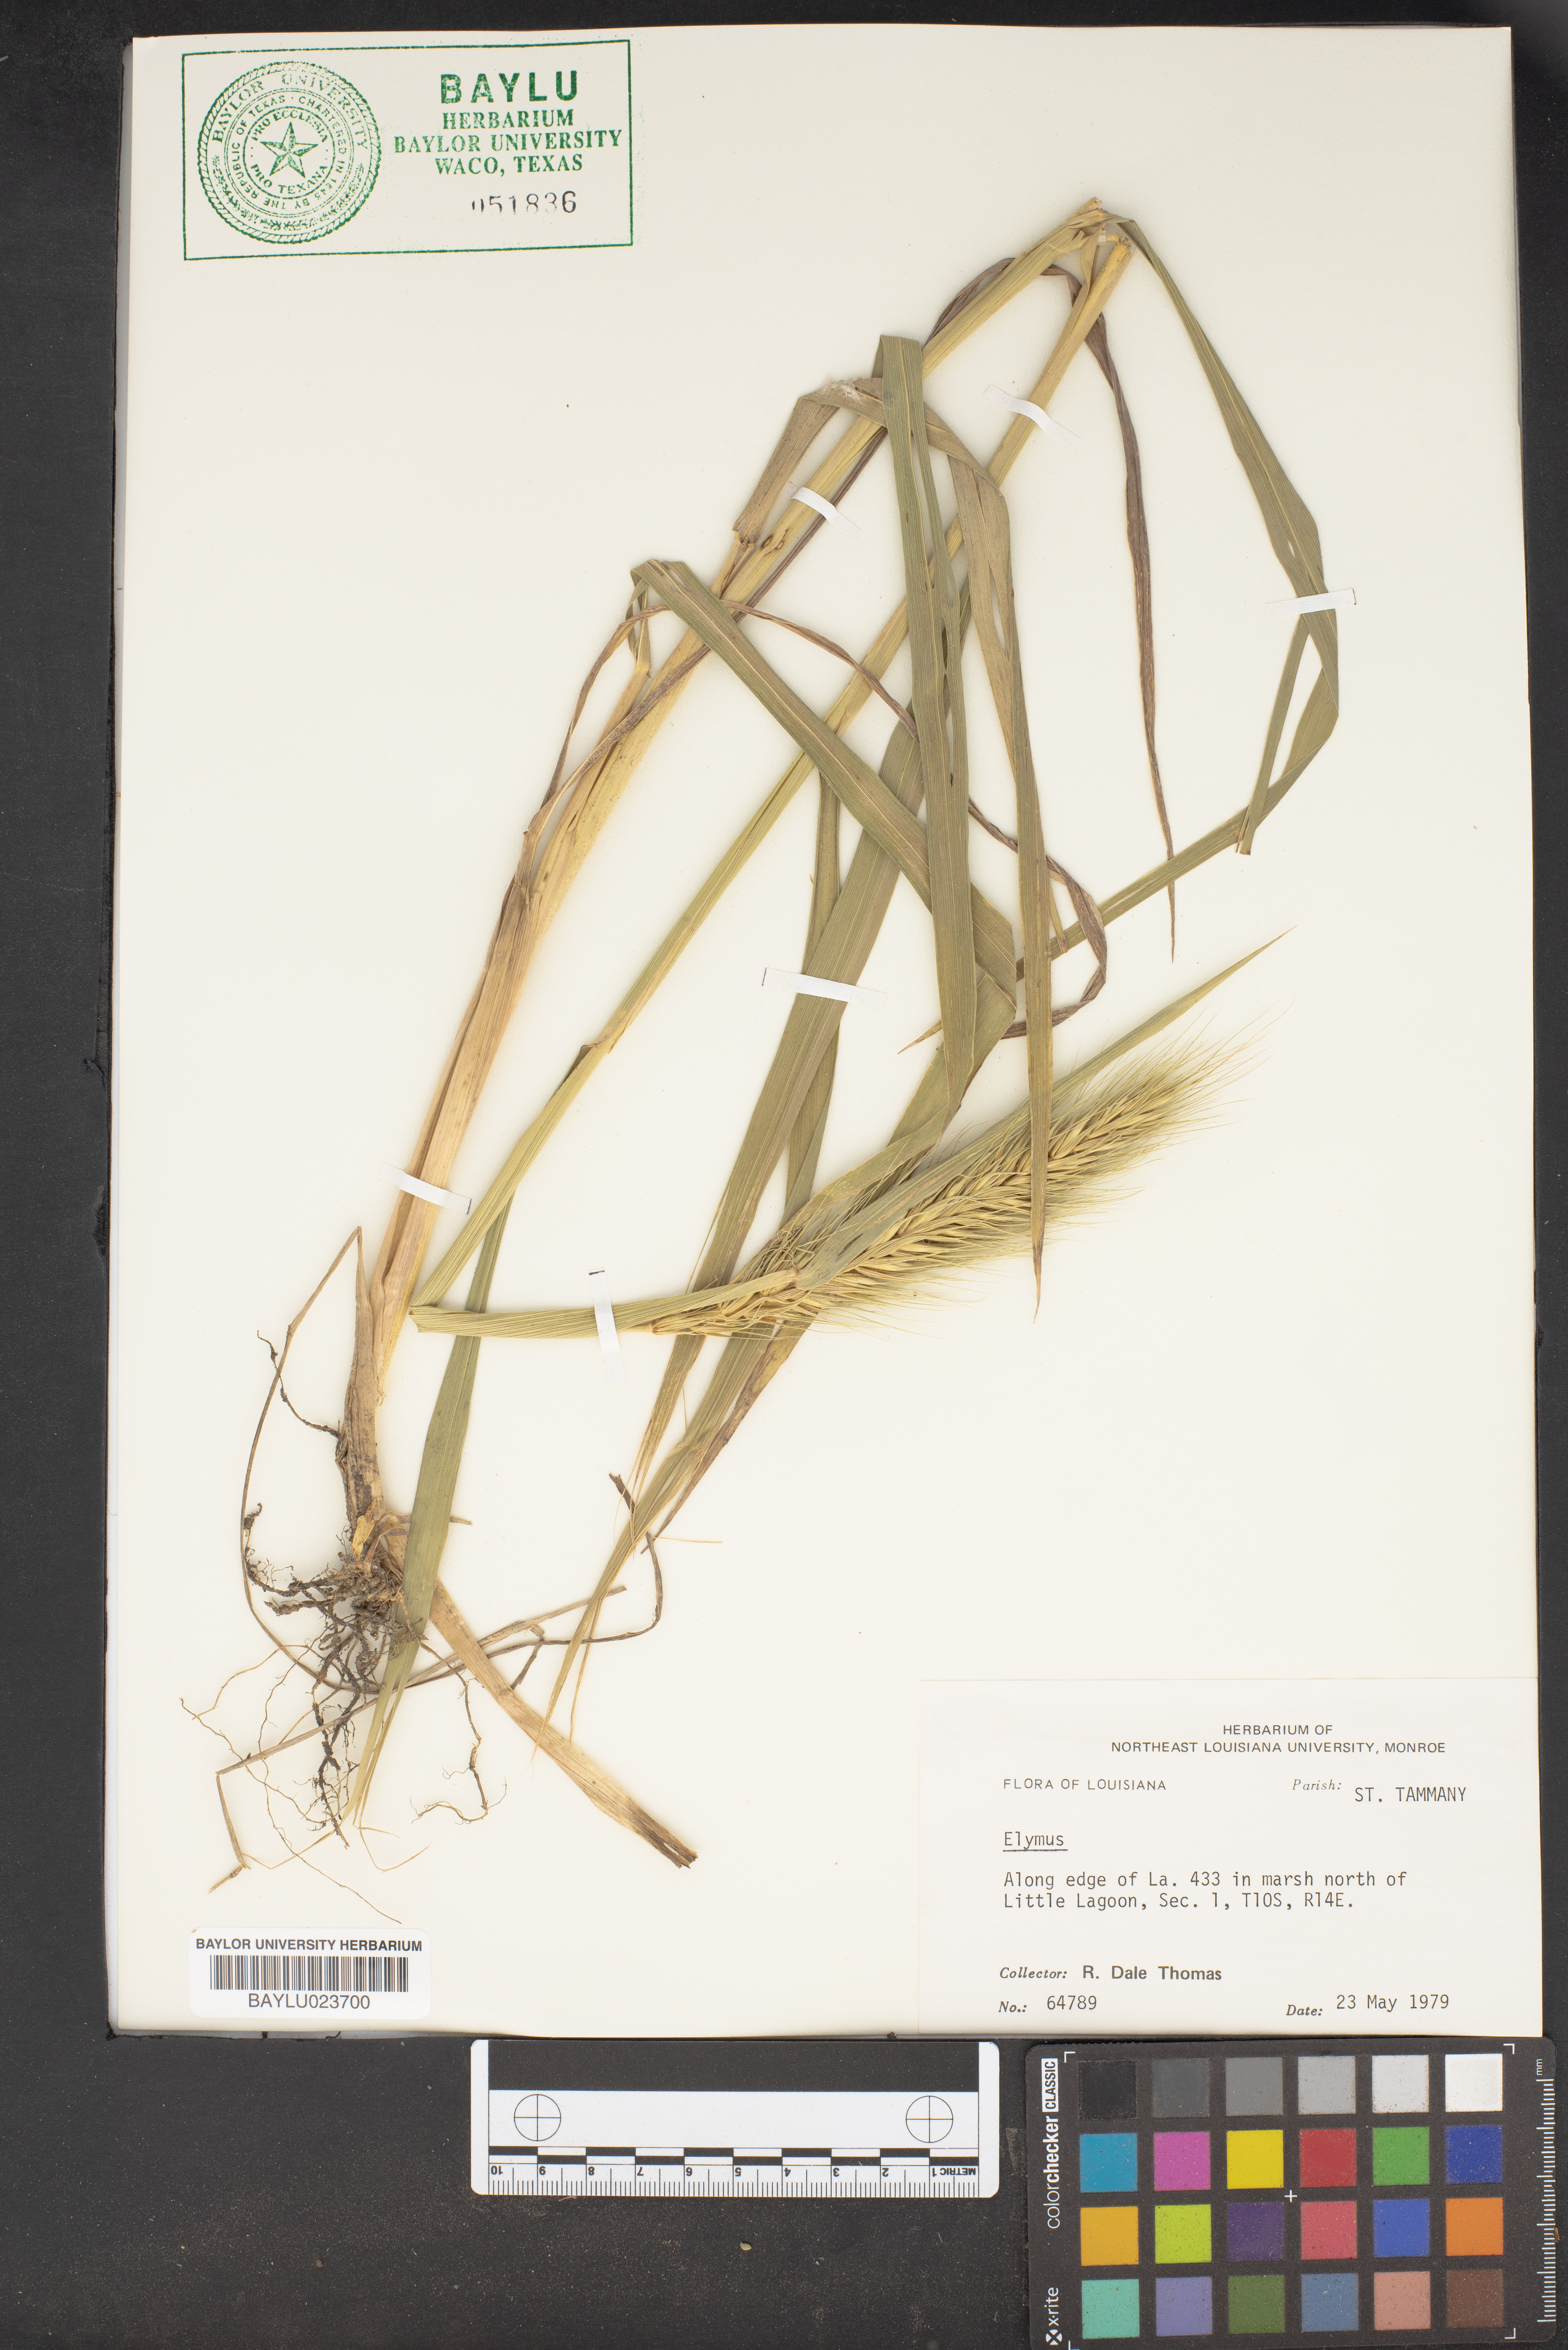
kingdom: Plantae
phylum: Tracheophyta
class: Liliopsida
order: Poales
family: Poaceae
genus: Elymus
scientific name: Elymus
